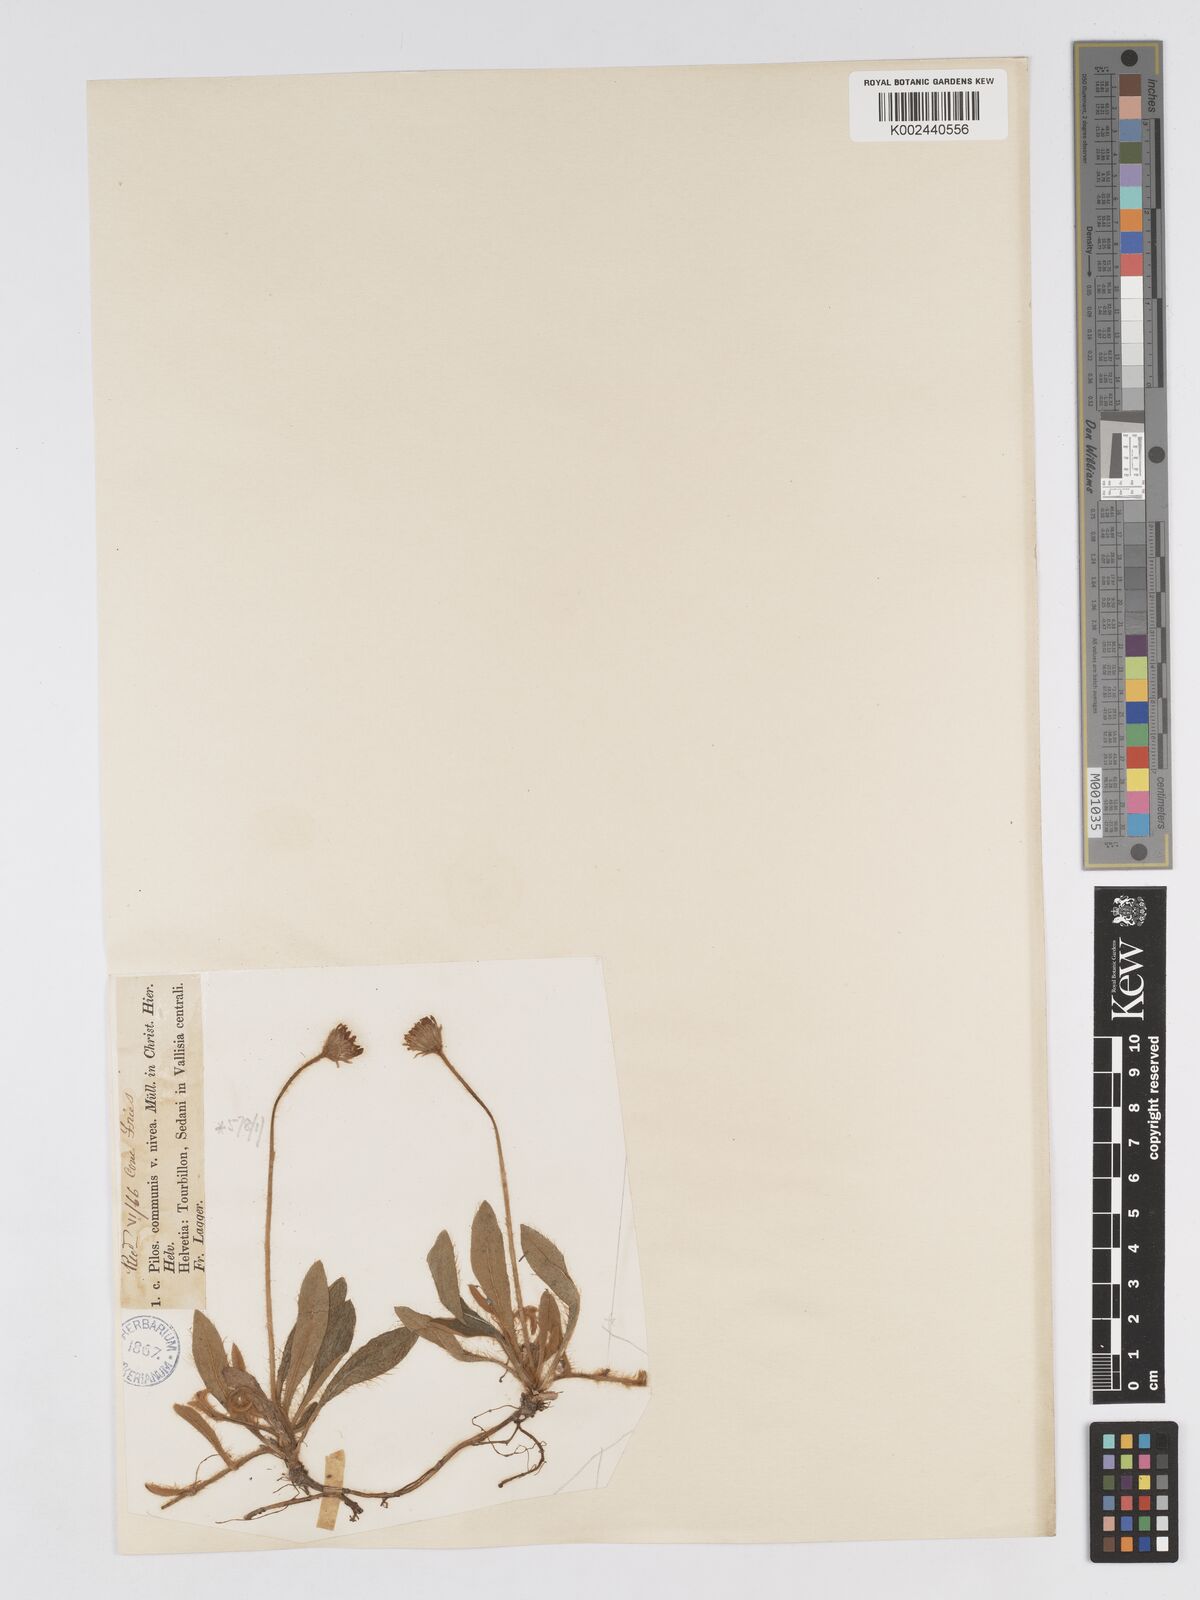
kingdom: Plantae
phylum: Tracheophyta
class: Magnoliopsida
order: Asterales
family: Asteraceae
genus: Pilosella
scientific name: Pilosella tardans
